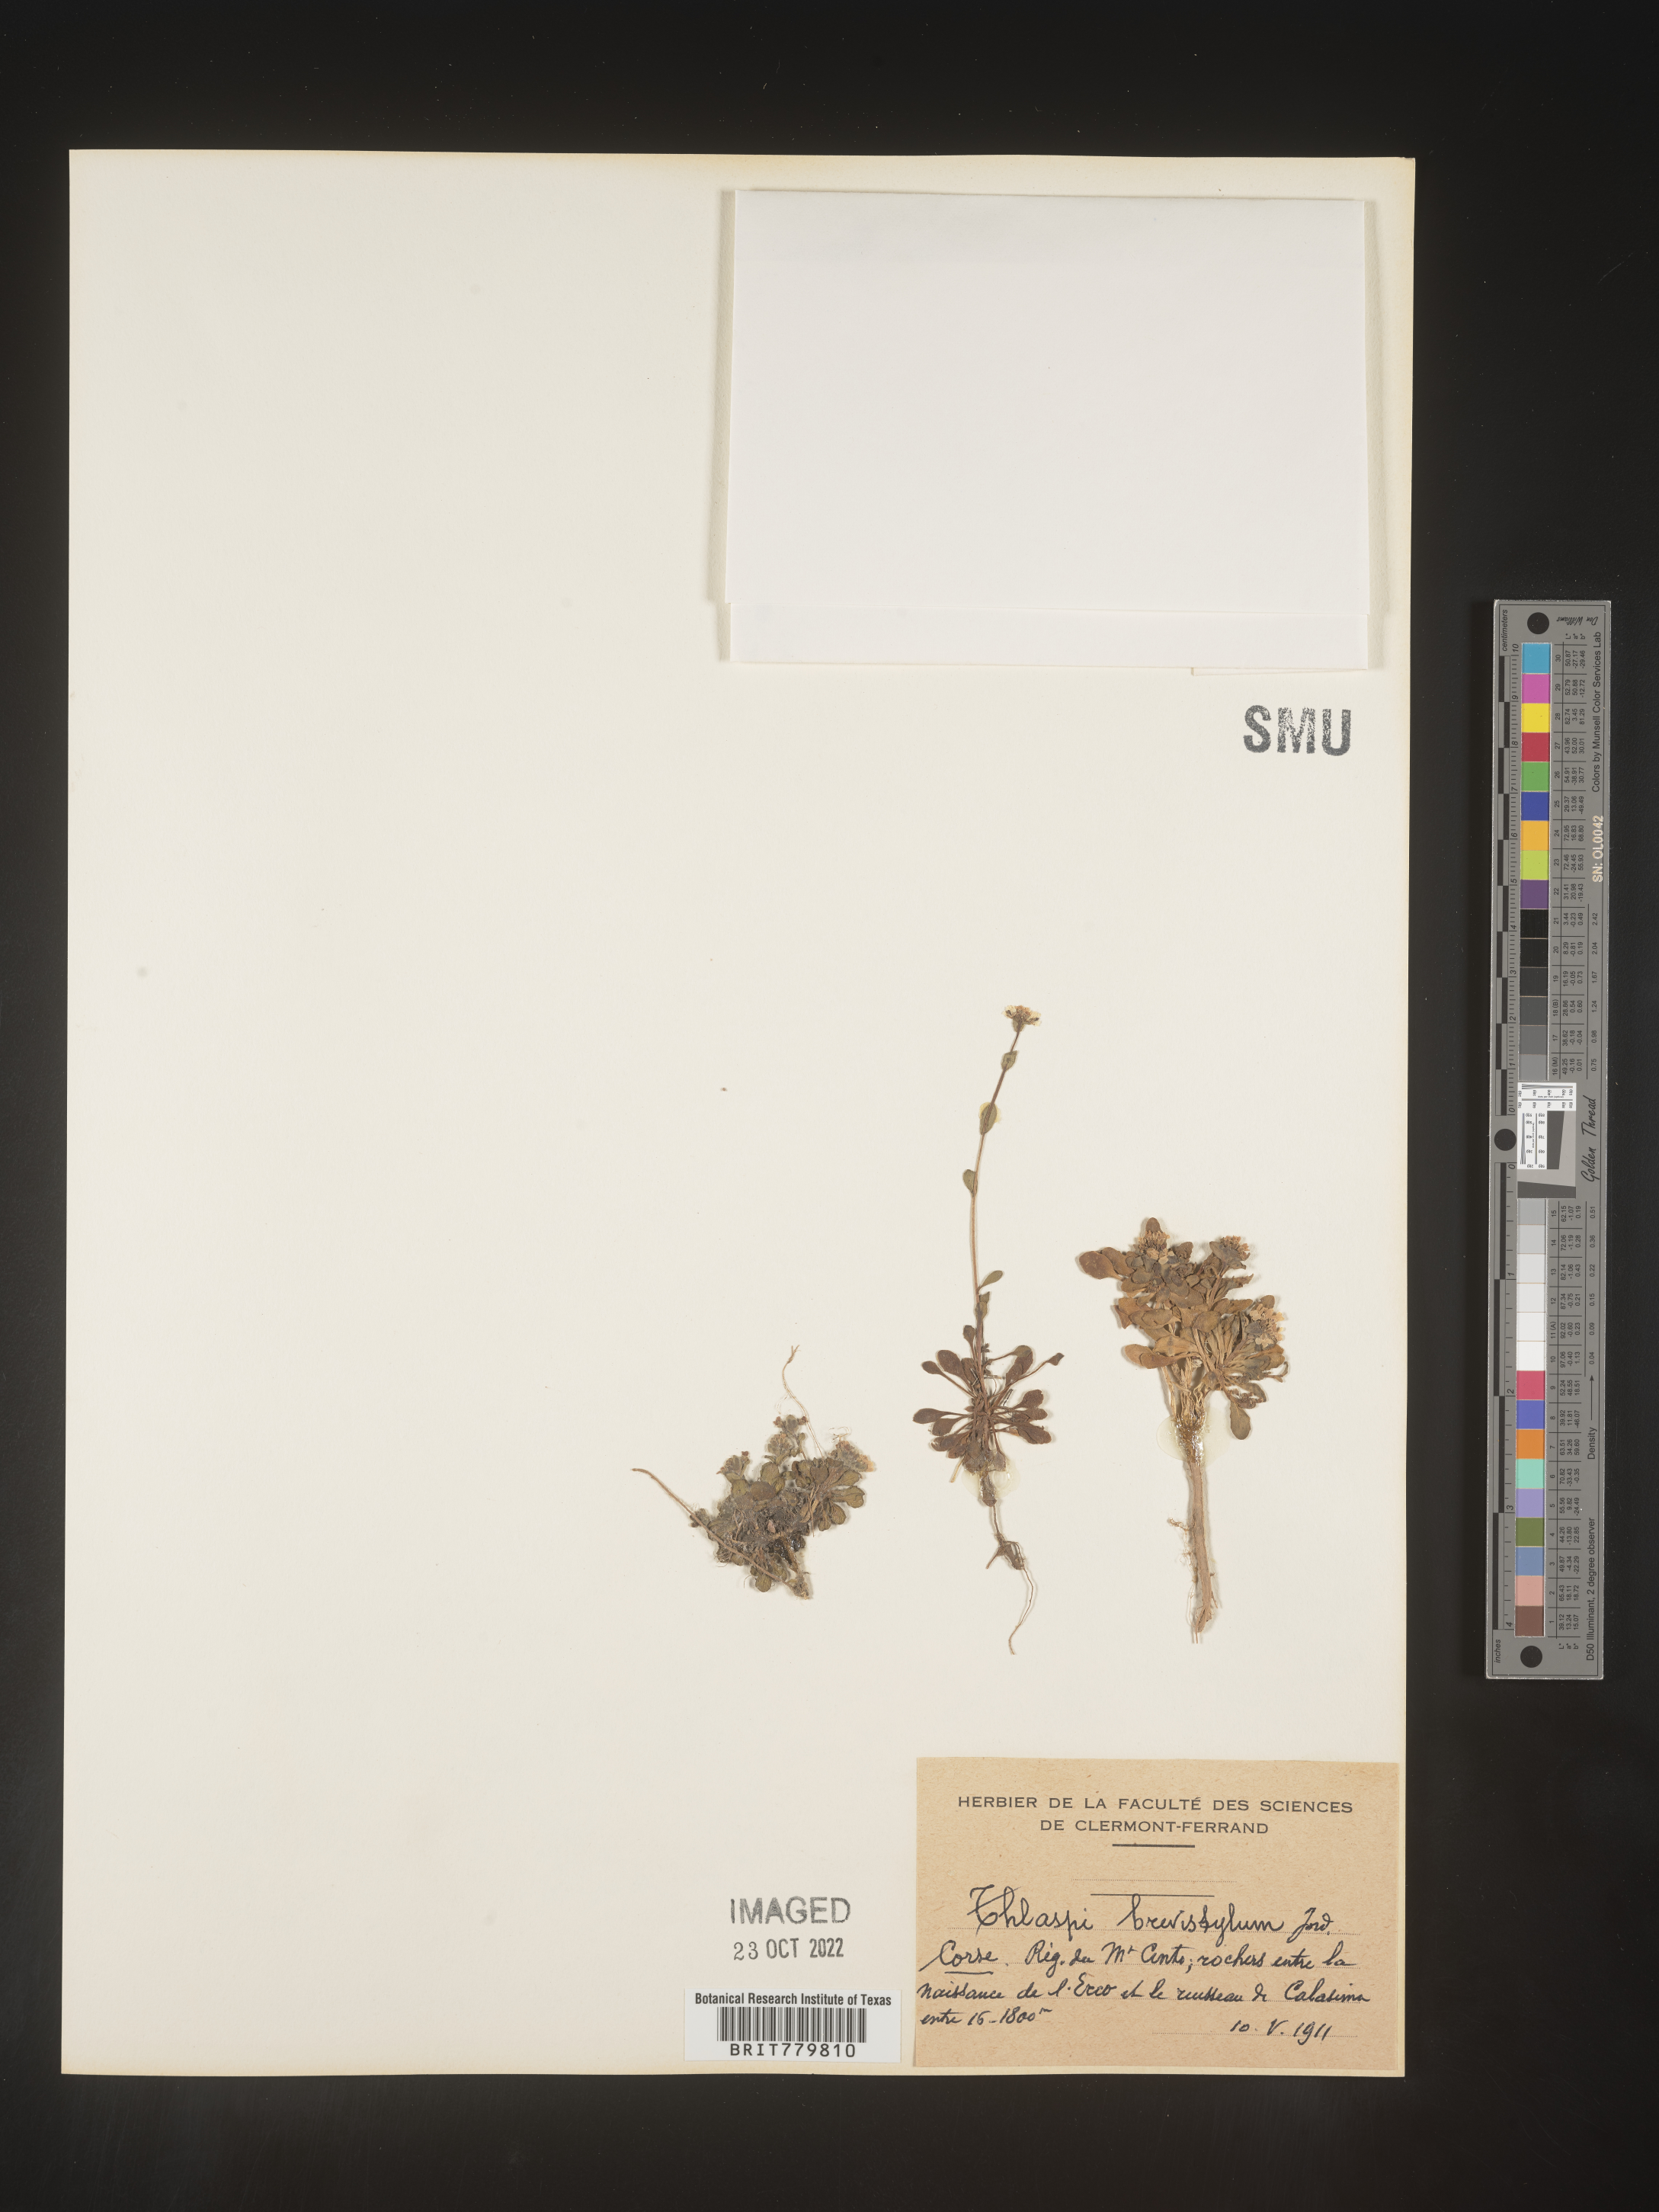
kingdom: Plantae
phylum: Tracheophyta
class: Magnoliopsida
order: Brassicales
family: Brassicaceae
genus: Thlaspi
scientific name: Thlaspi
